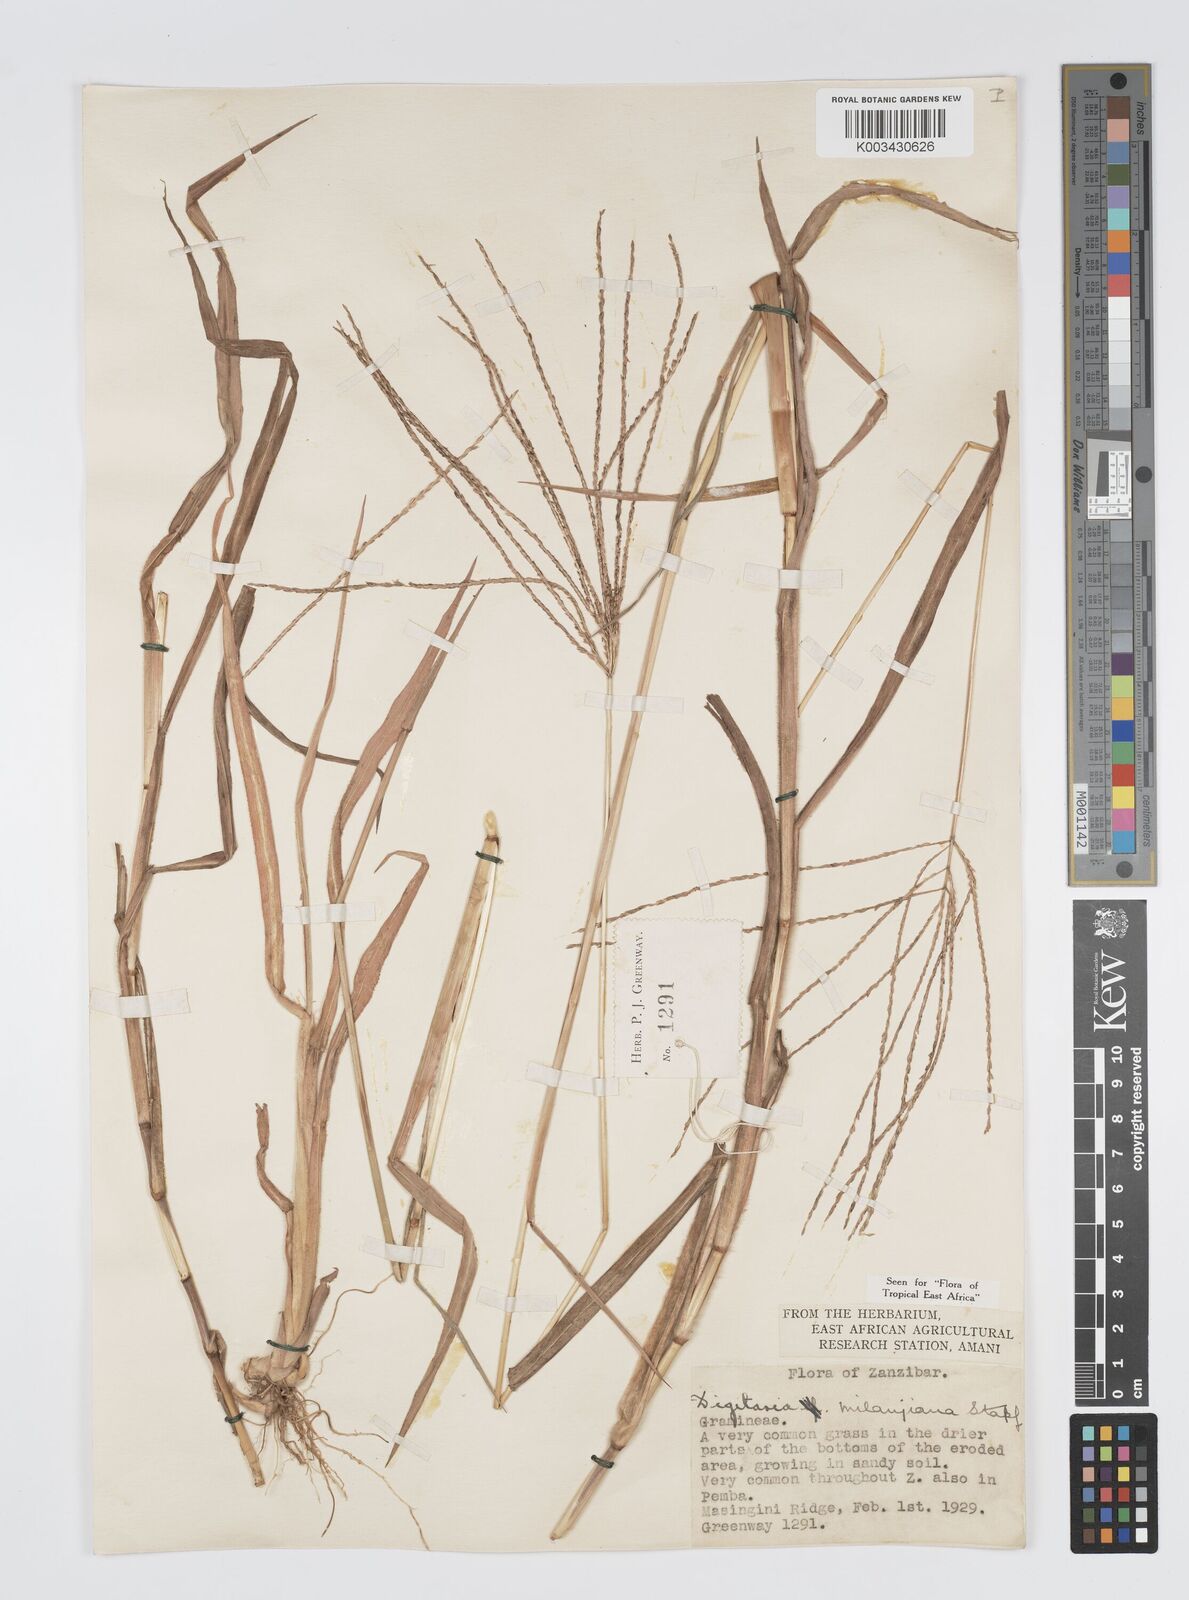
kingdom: Plantae
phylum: Tracheophyta
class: Liliopsida
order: Poales
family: Poaceae
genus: Digitaria
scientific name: Digitaria milanjiana
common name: Madagascar crabgrass
